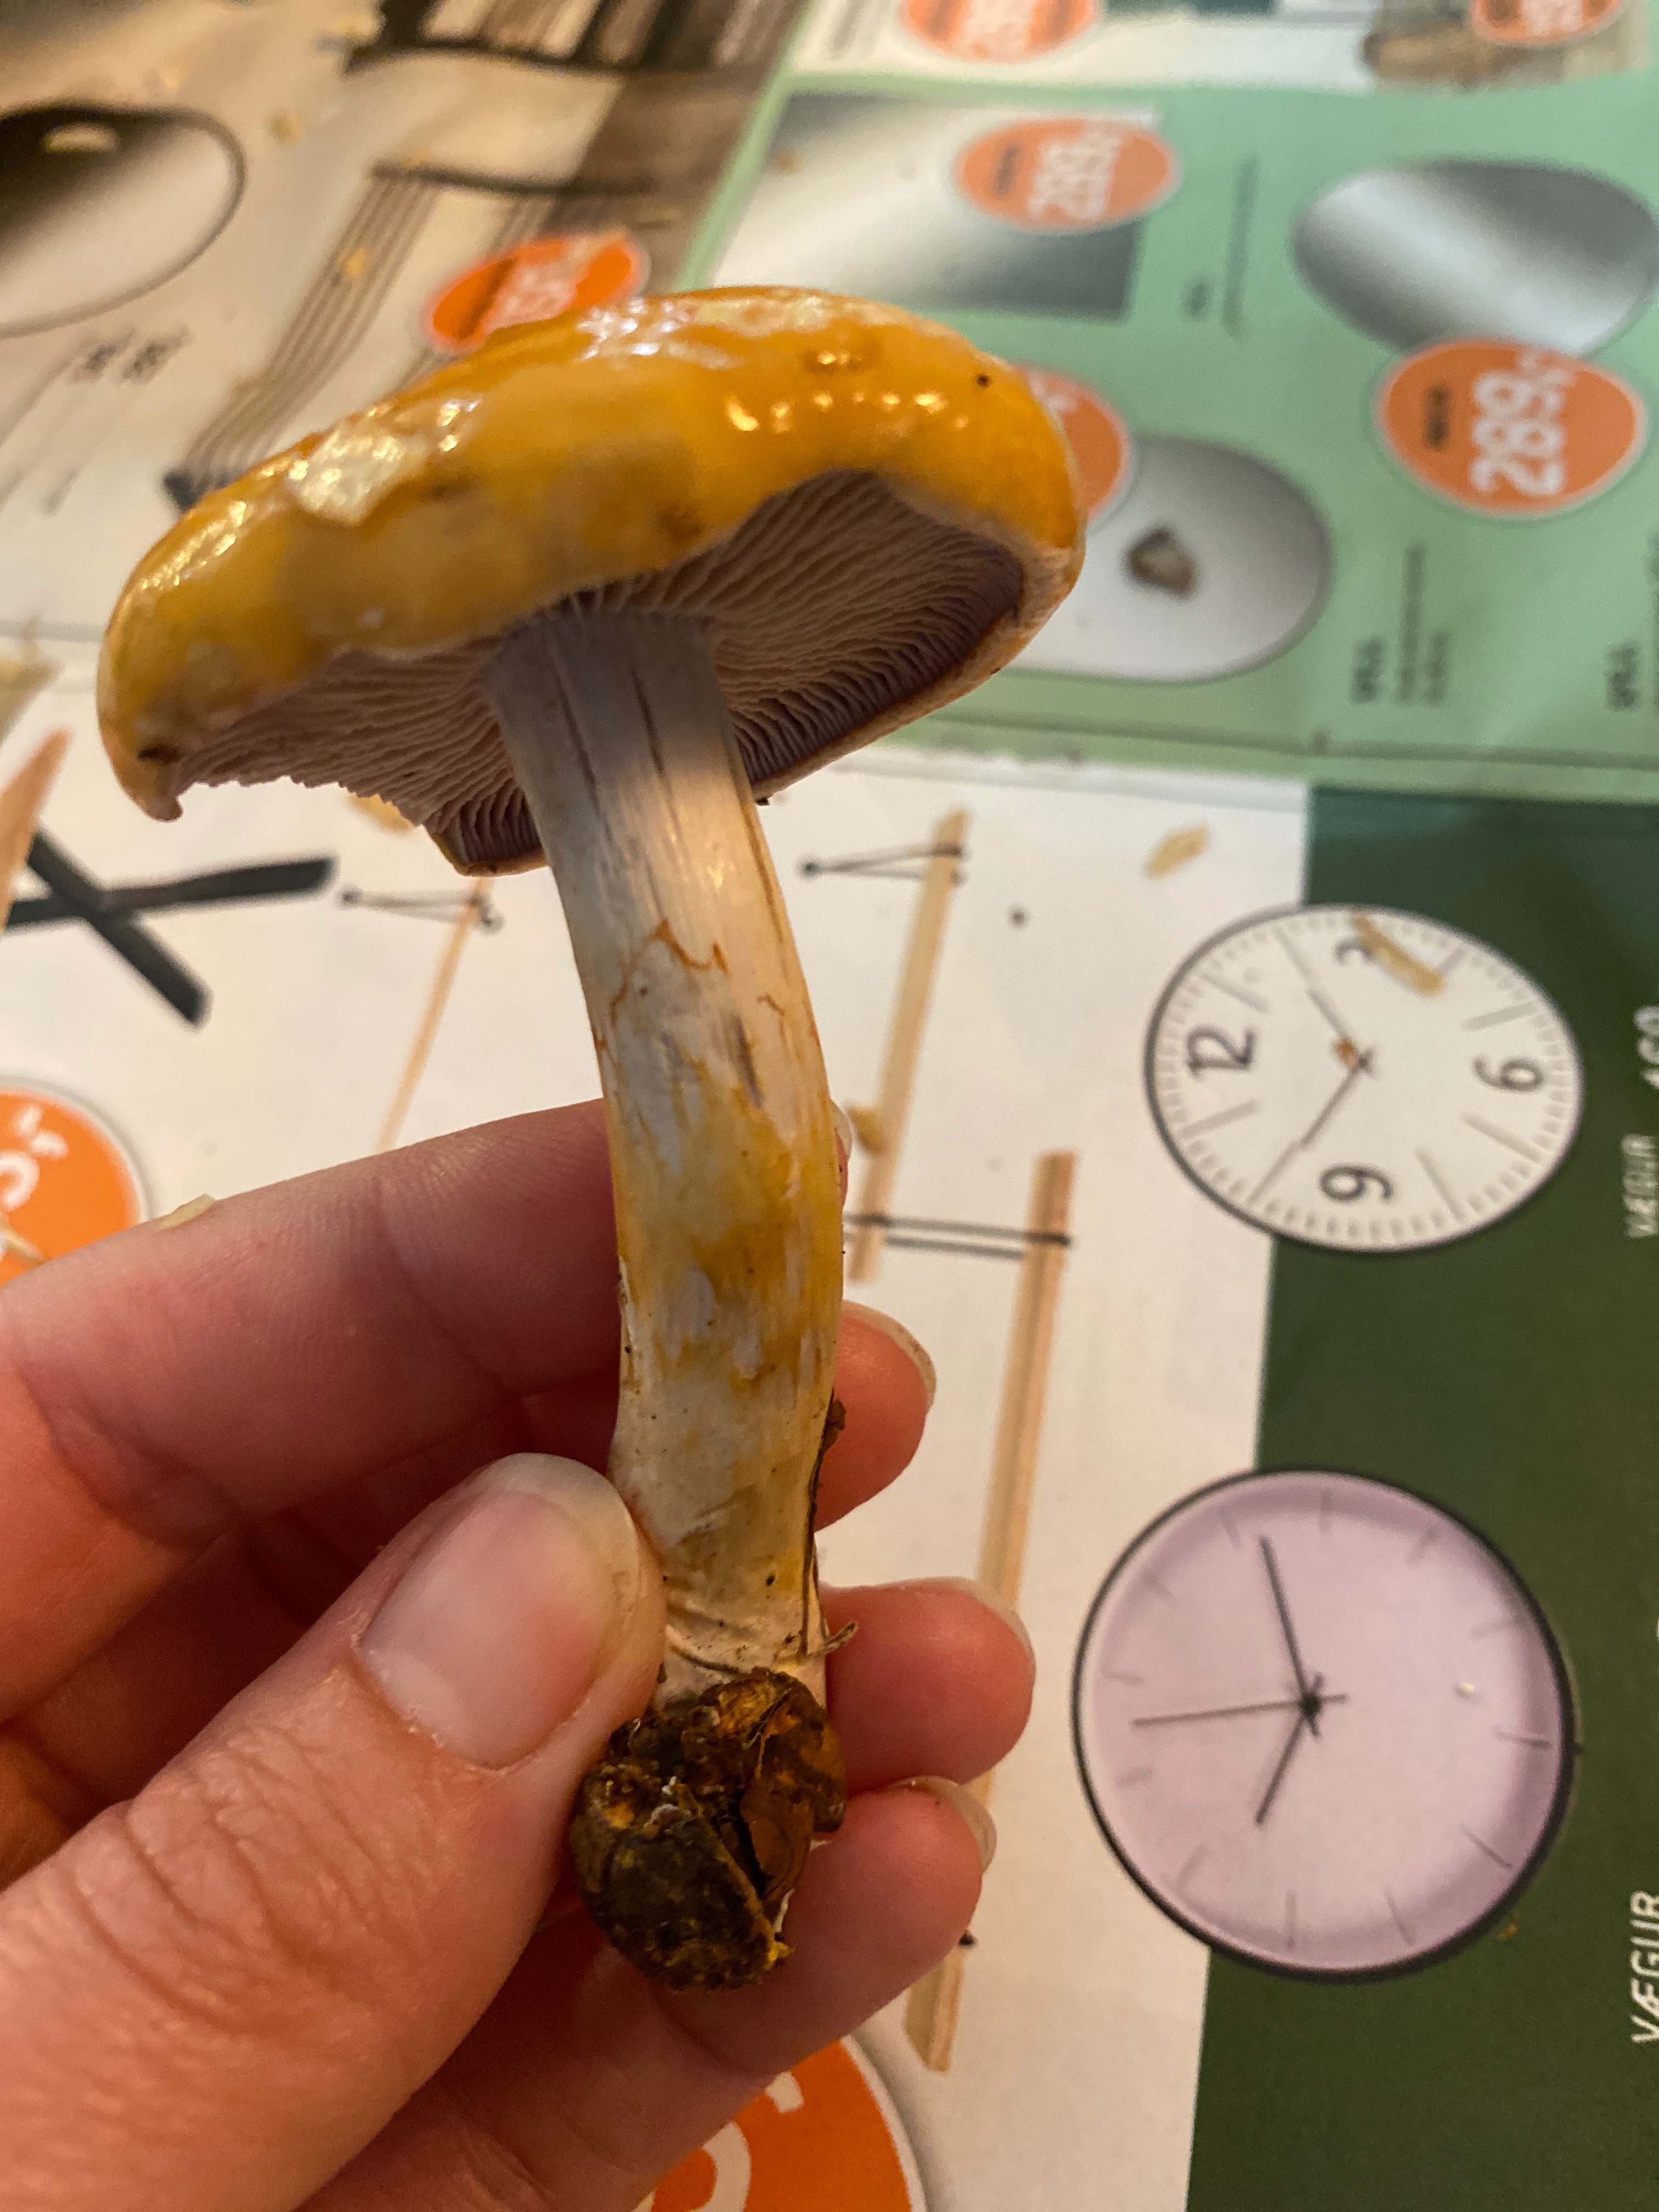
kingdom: Fungi
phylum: Basidiomycota
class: Agaricomycetes
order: Agaricales
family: Cortinariaceae
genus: Cortinarius
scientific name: Cortinarius delibutus
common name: gul slørhat
